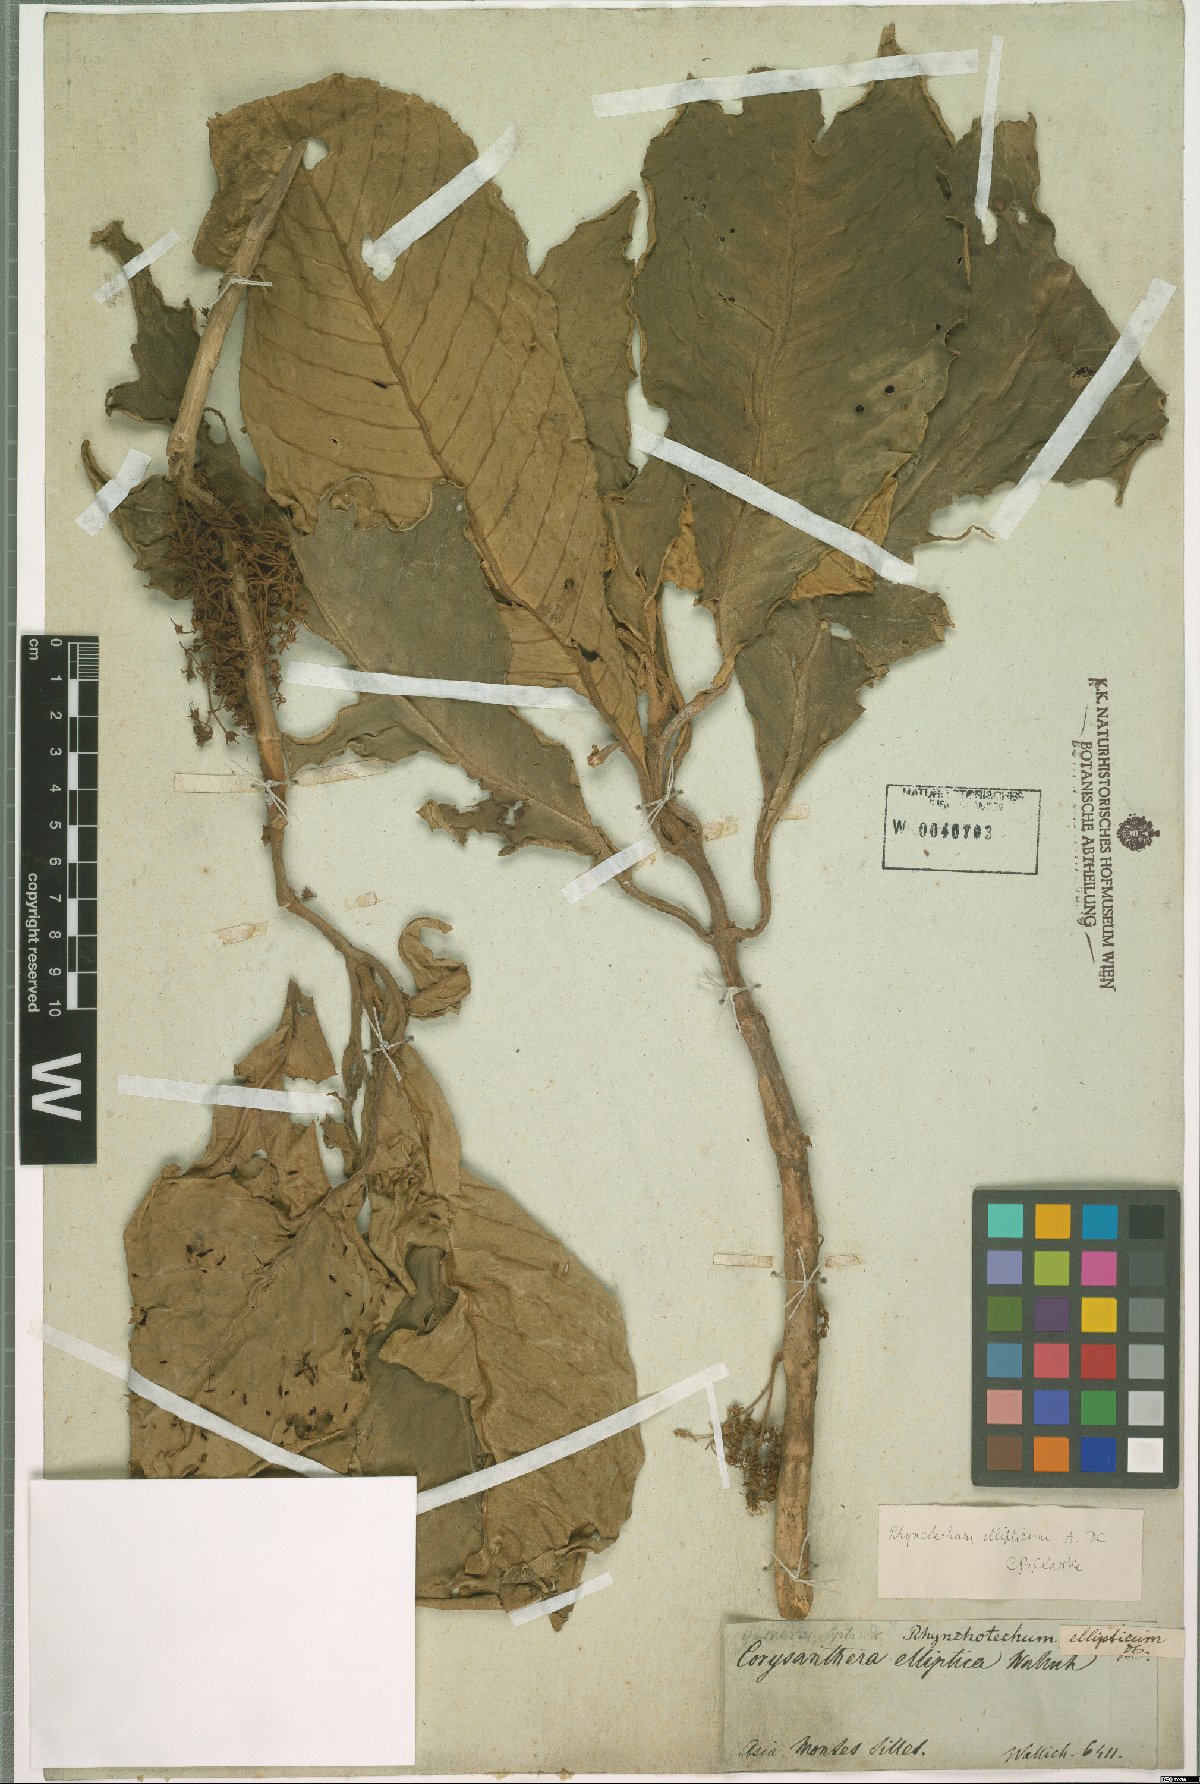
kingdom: Plantae
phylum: Tracheophyta
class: Magnoliopsida
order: Lamiales
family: Gesneriaceae
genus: Rhynchotechum
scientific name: Rhynchotechum
